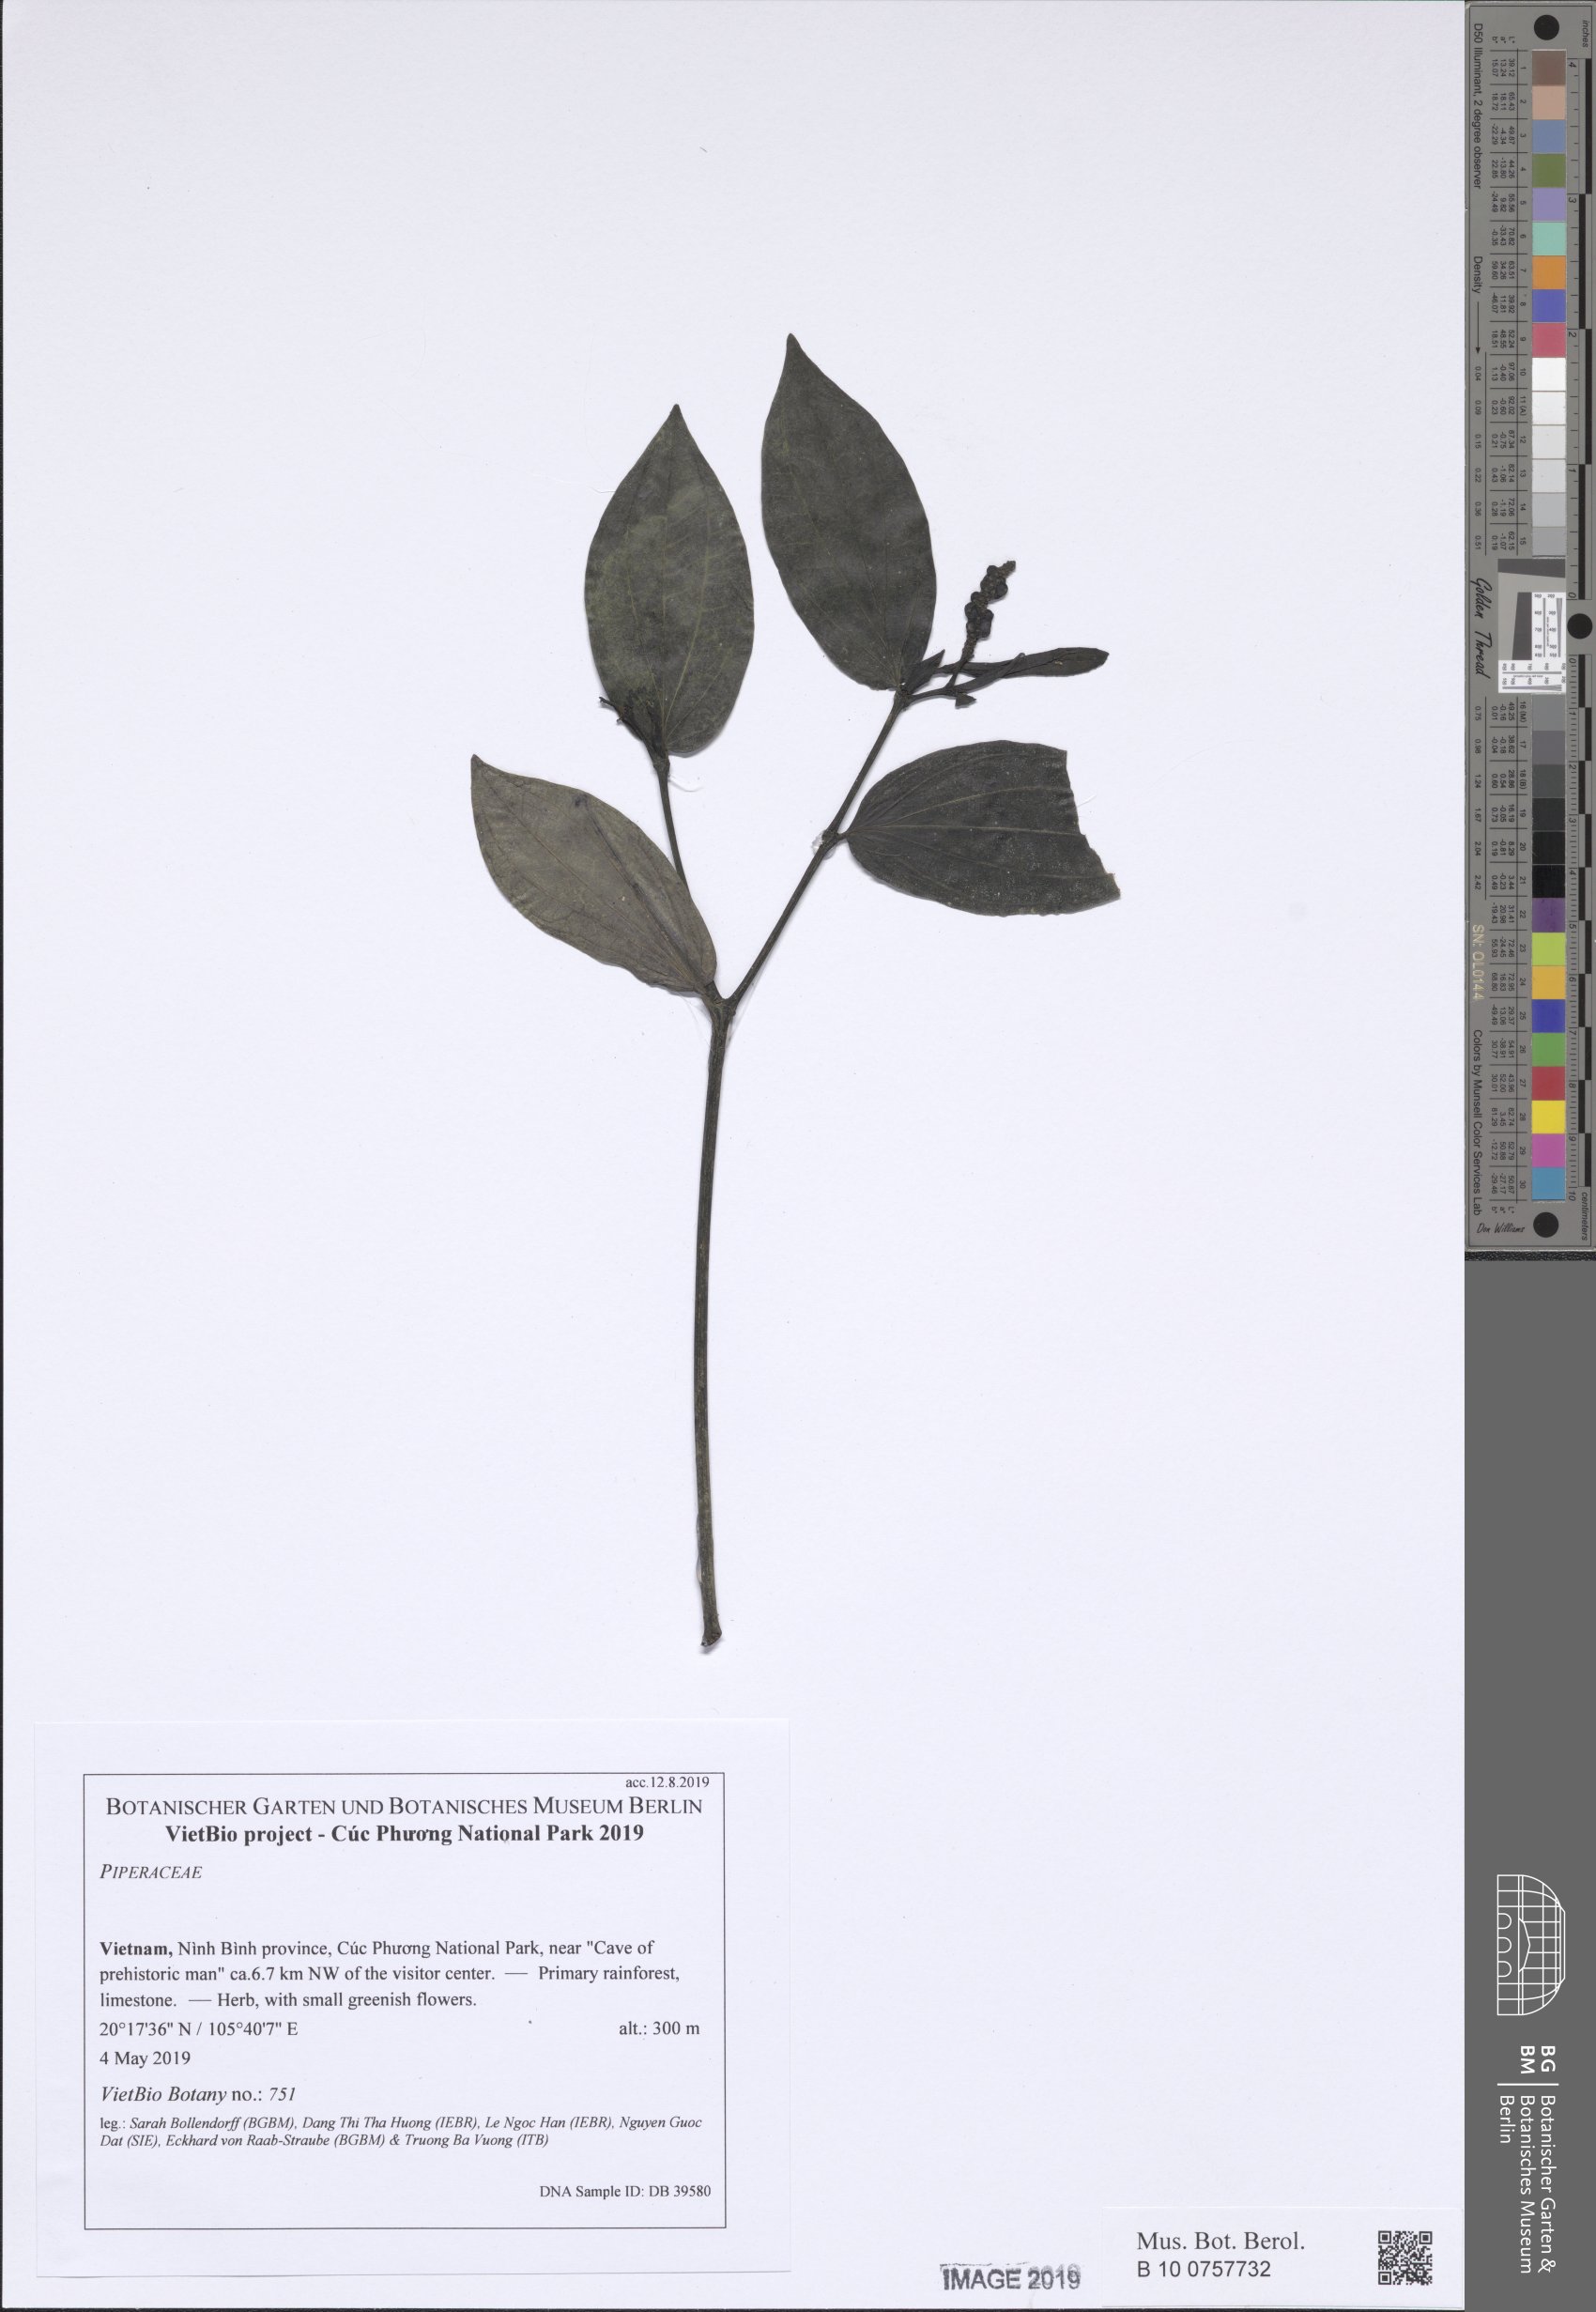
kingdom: Plantae
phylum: Tracheophyta
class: Magnoliopsida
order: Piperales
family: Piperaceae
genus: Piper
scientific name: Piper
